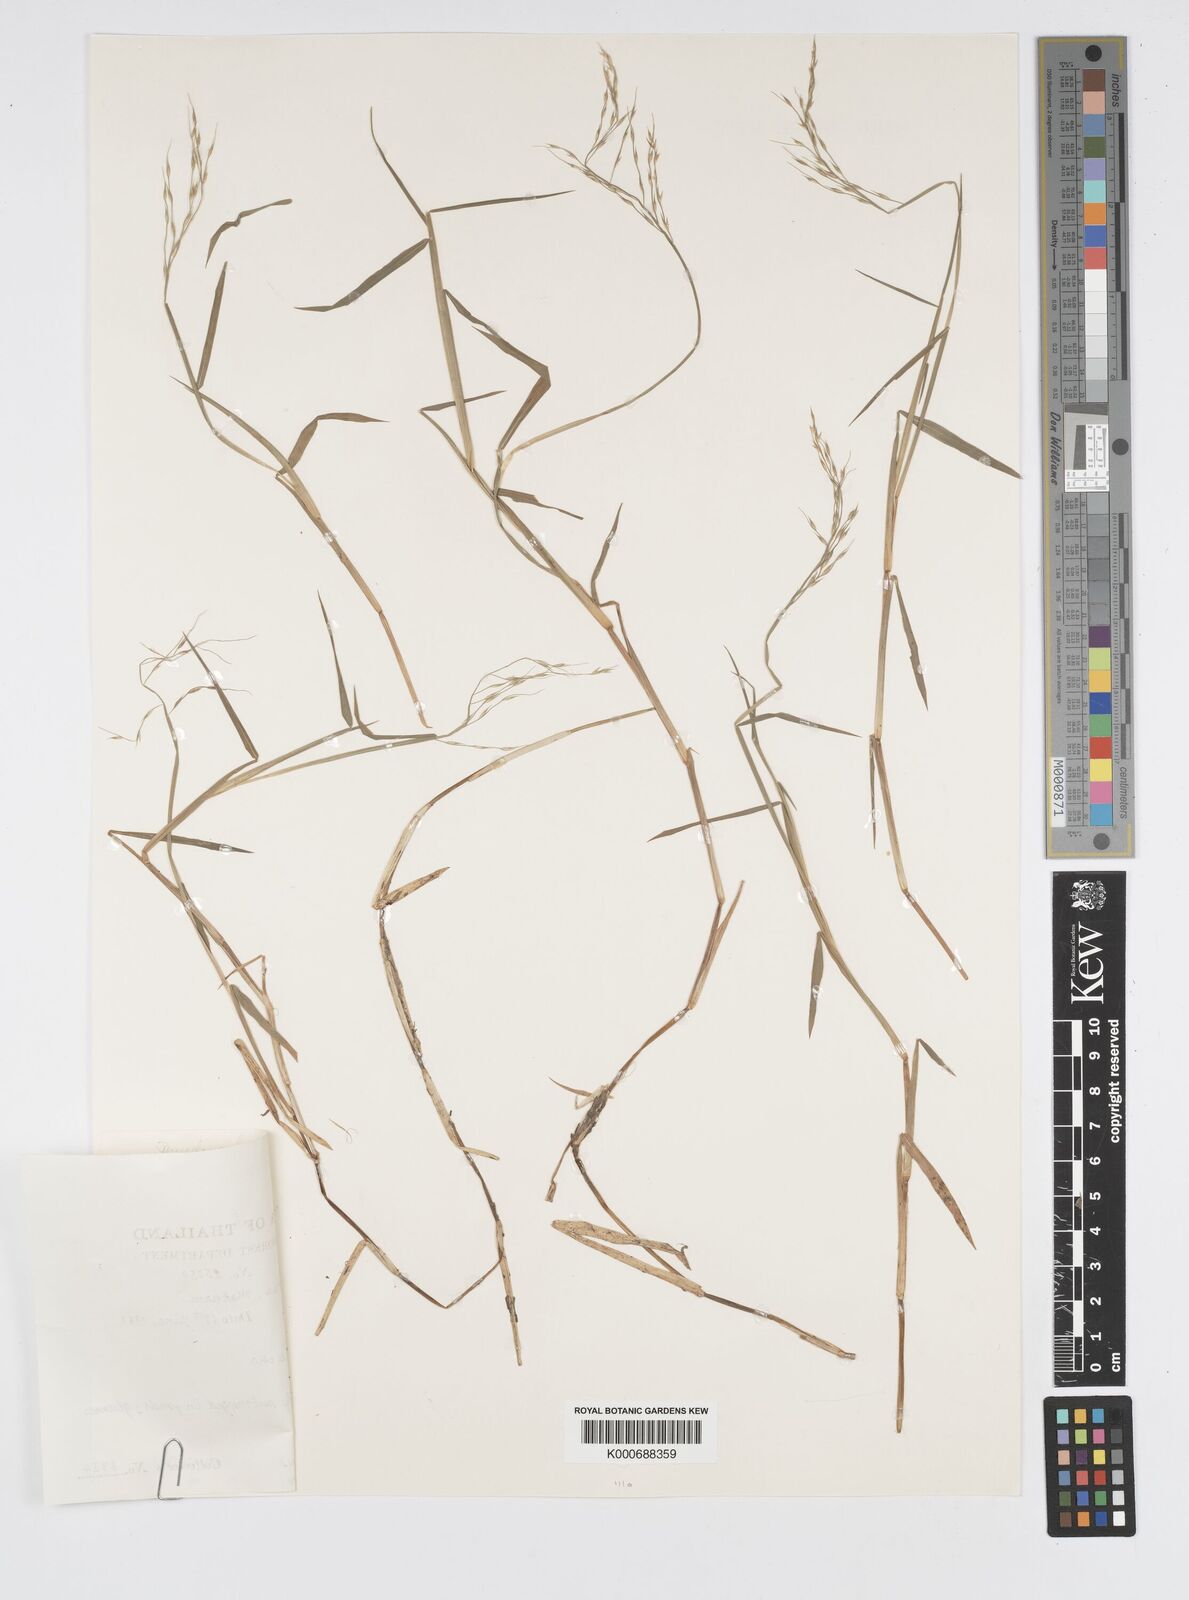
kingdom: Plantae
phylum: Tracheophyta
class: Liliopsida
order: Poales
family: Poaceae
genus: Pseudoraphis
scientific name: Pseudoraphis spinescens
